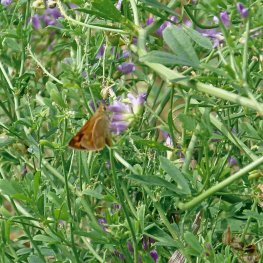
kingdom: Animalia
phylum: Arthropoda
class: Insecta
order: Lepidoptera
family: Hesperiidae
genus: Ochlodes
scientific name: Ochlodes sylvanoides
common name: Woodland Skipper
